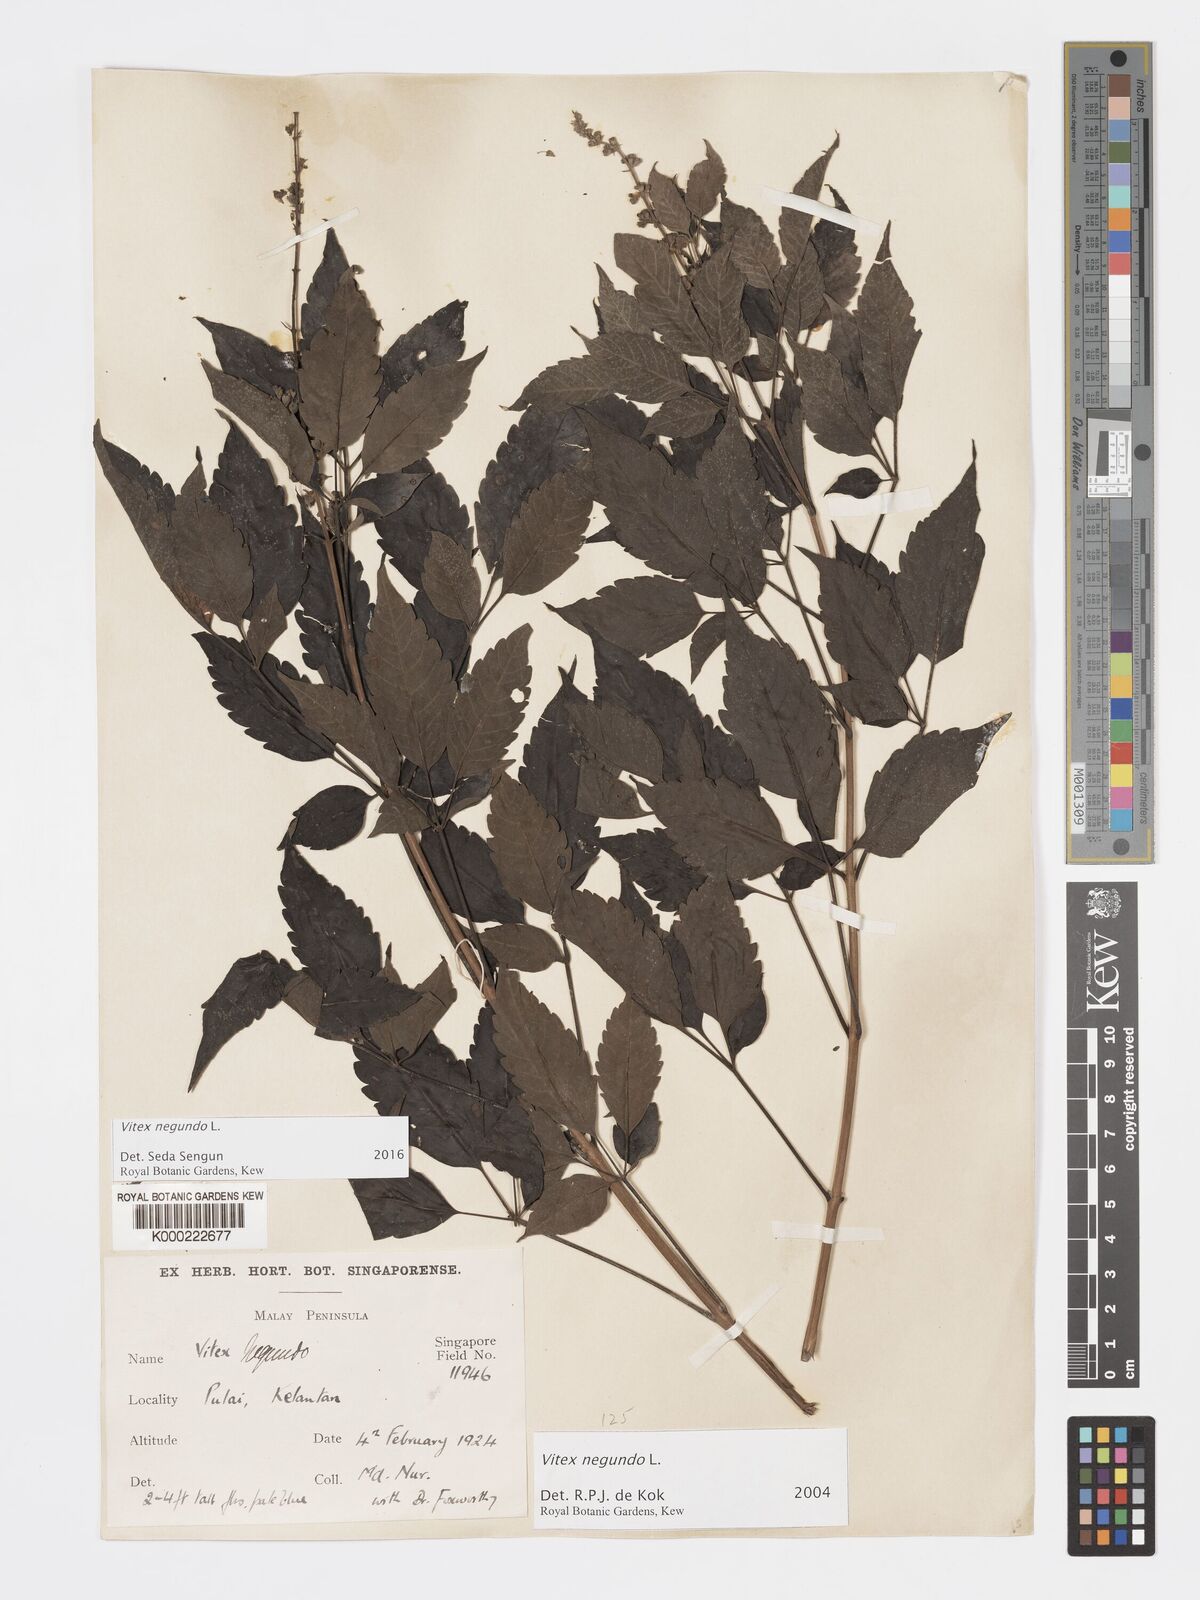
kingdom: Plantae
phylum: Tracheophyta
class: Magnoliopsida
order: Lamiales
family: Lamiaceae
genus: Vitex
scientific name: Vitex negundo
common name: Chinese chastetree
